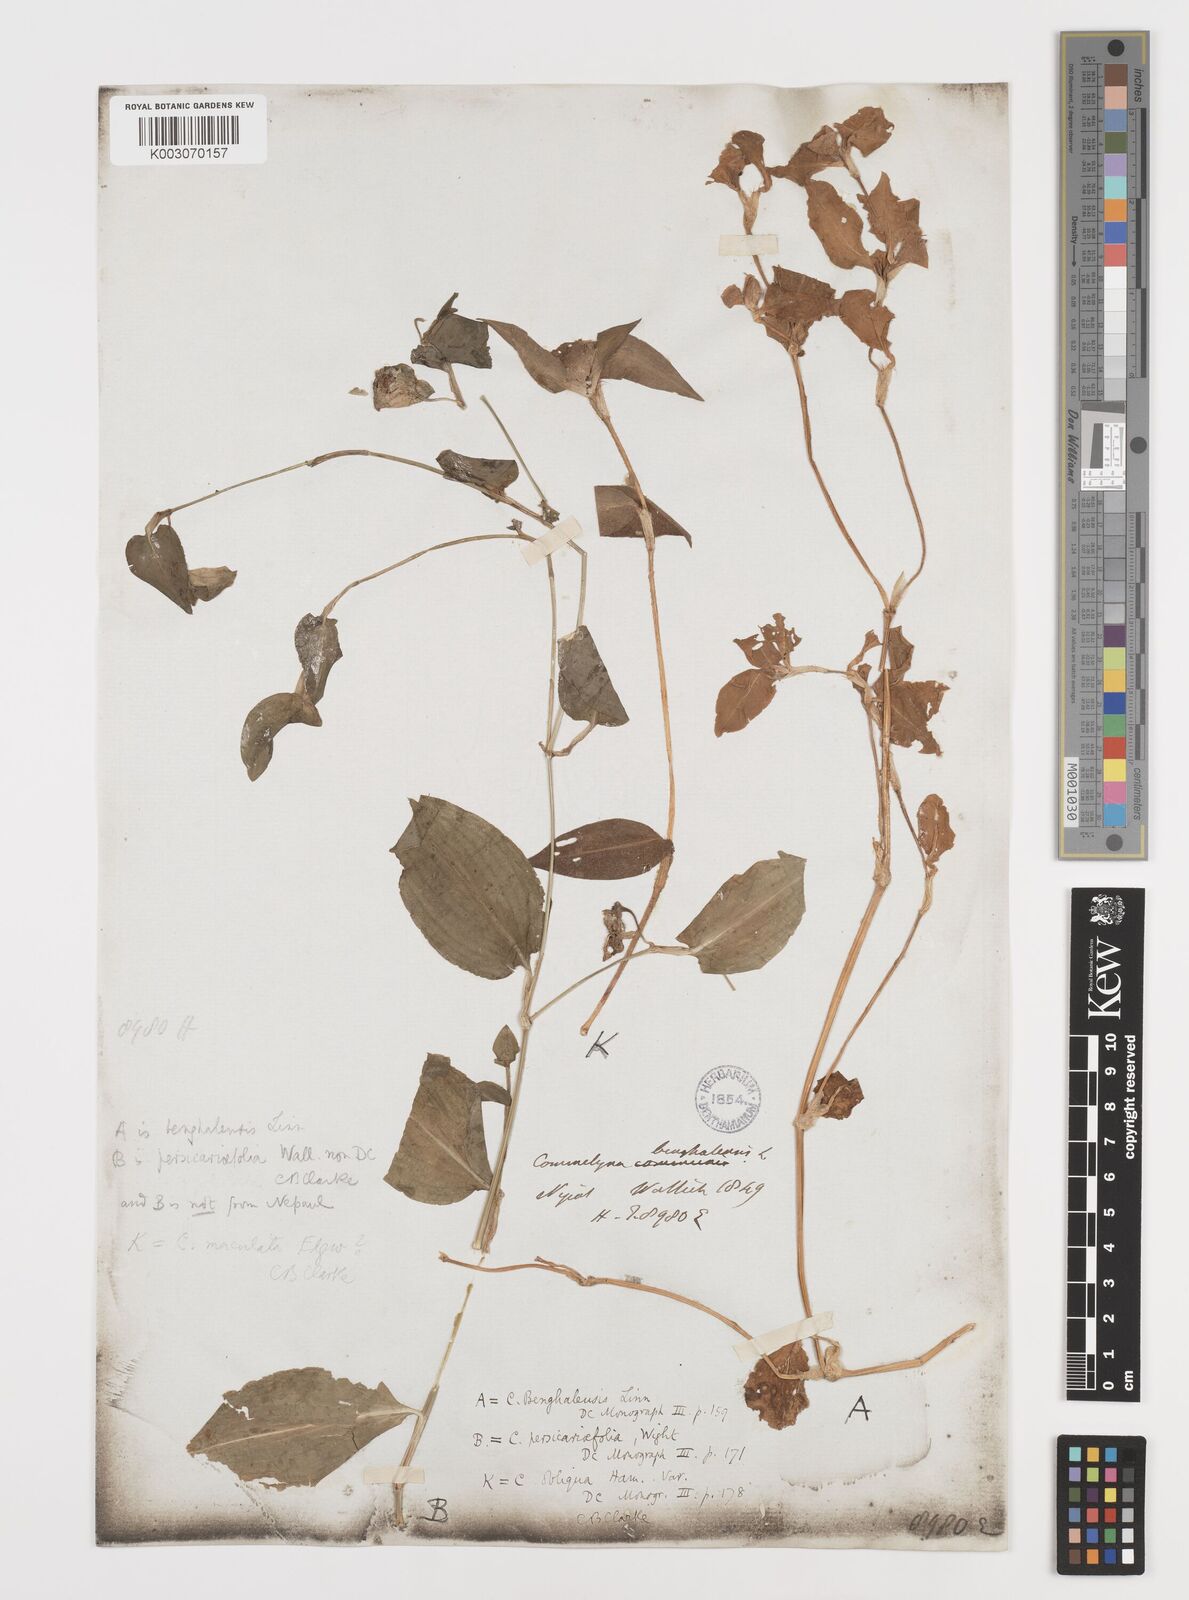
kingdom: Plantae
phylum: Tracheophyta
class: Liliopsida
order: Commelinales
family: Commelinaceae
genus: Commelina
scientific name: Commelina petersii
